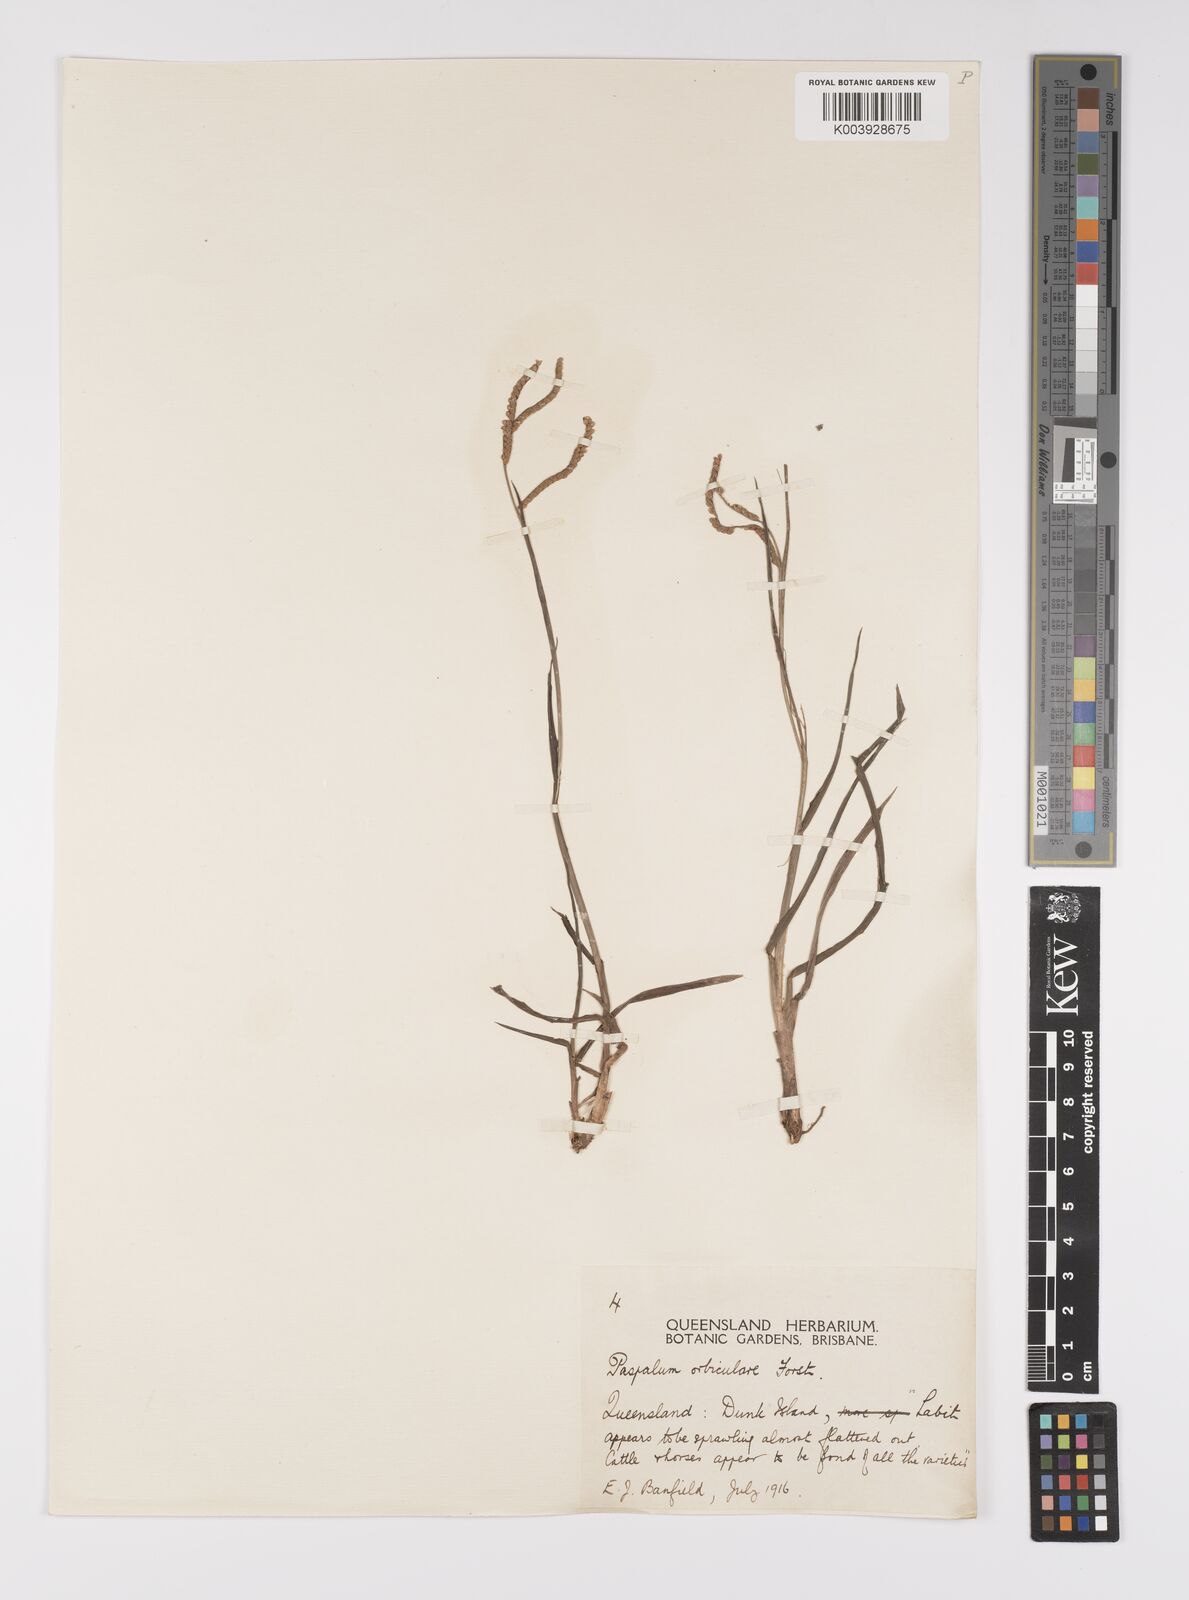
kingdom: Plantae
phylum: Tracheophyta
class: Liliopsida
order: Poales
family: Poaceae
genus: Paspalum
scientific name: Paspalum scrobiculatum
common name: Kodo millet
